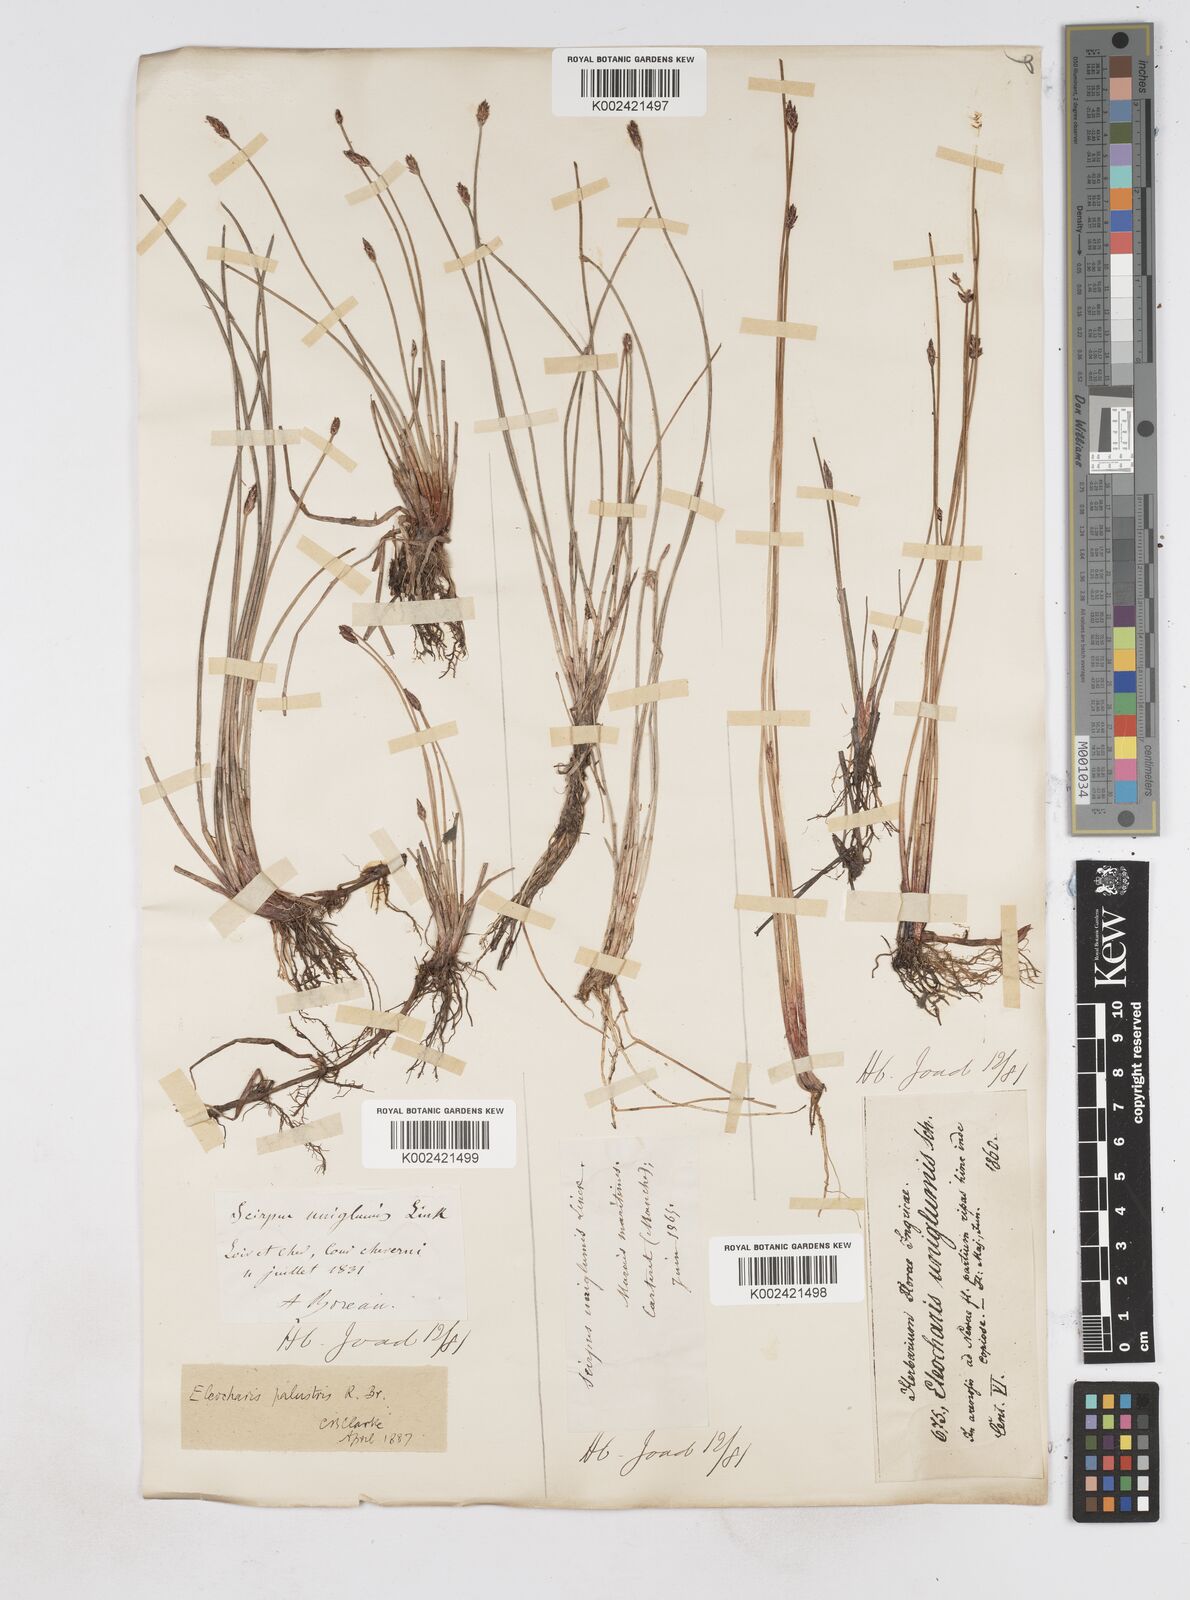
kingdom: Plantae
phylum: Tracheophyta
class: Liliopsida
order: Poales
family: Cyperaceae
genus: Eleocharis
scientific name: Eleocharis uniglumis
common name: Slender spike-rush
